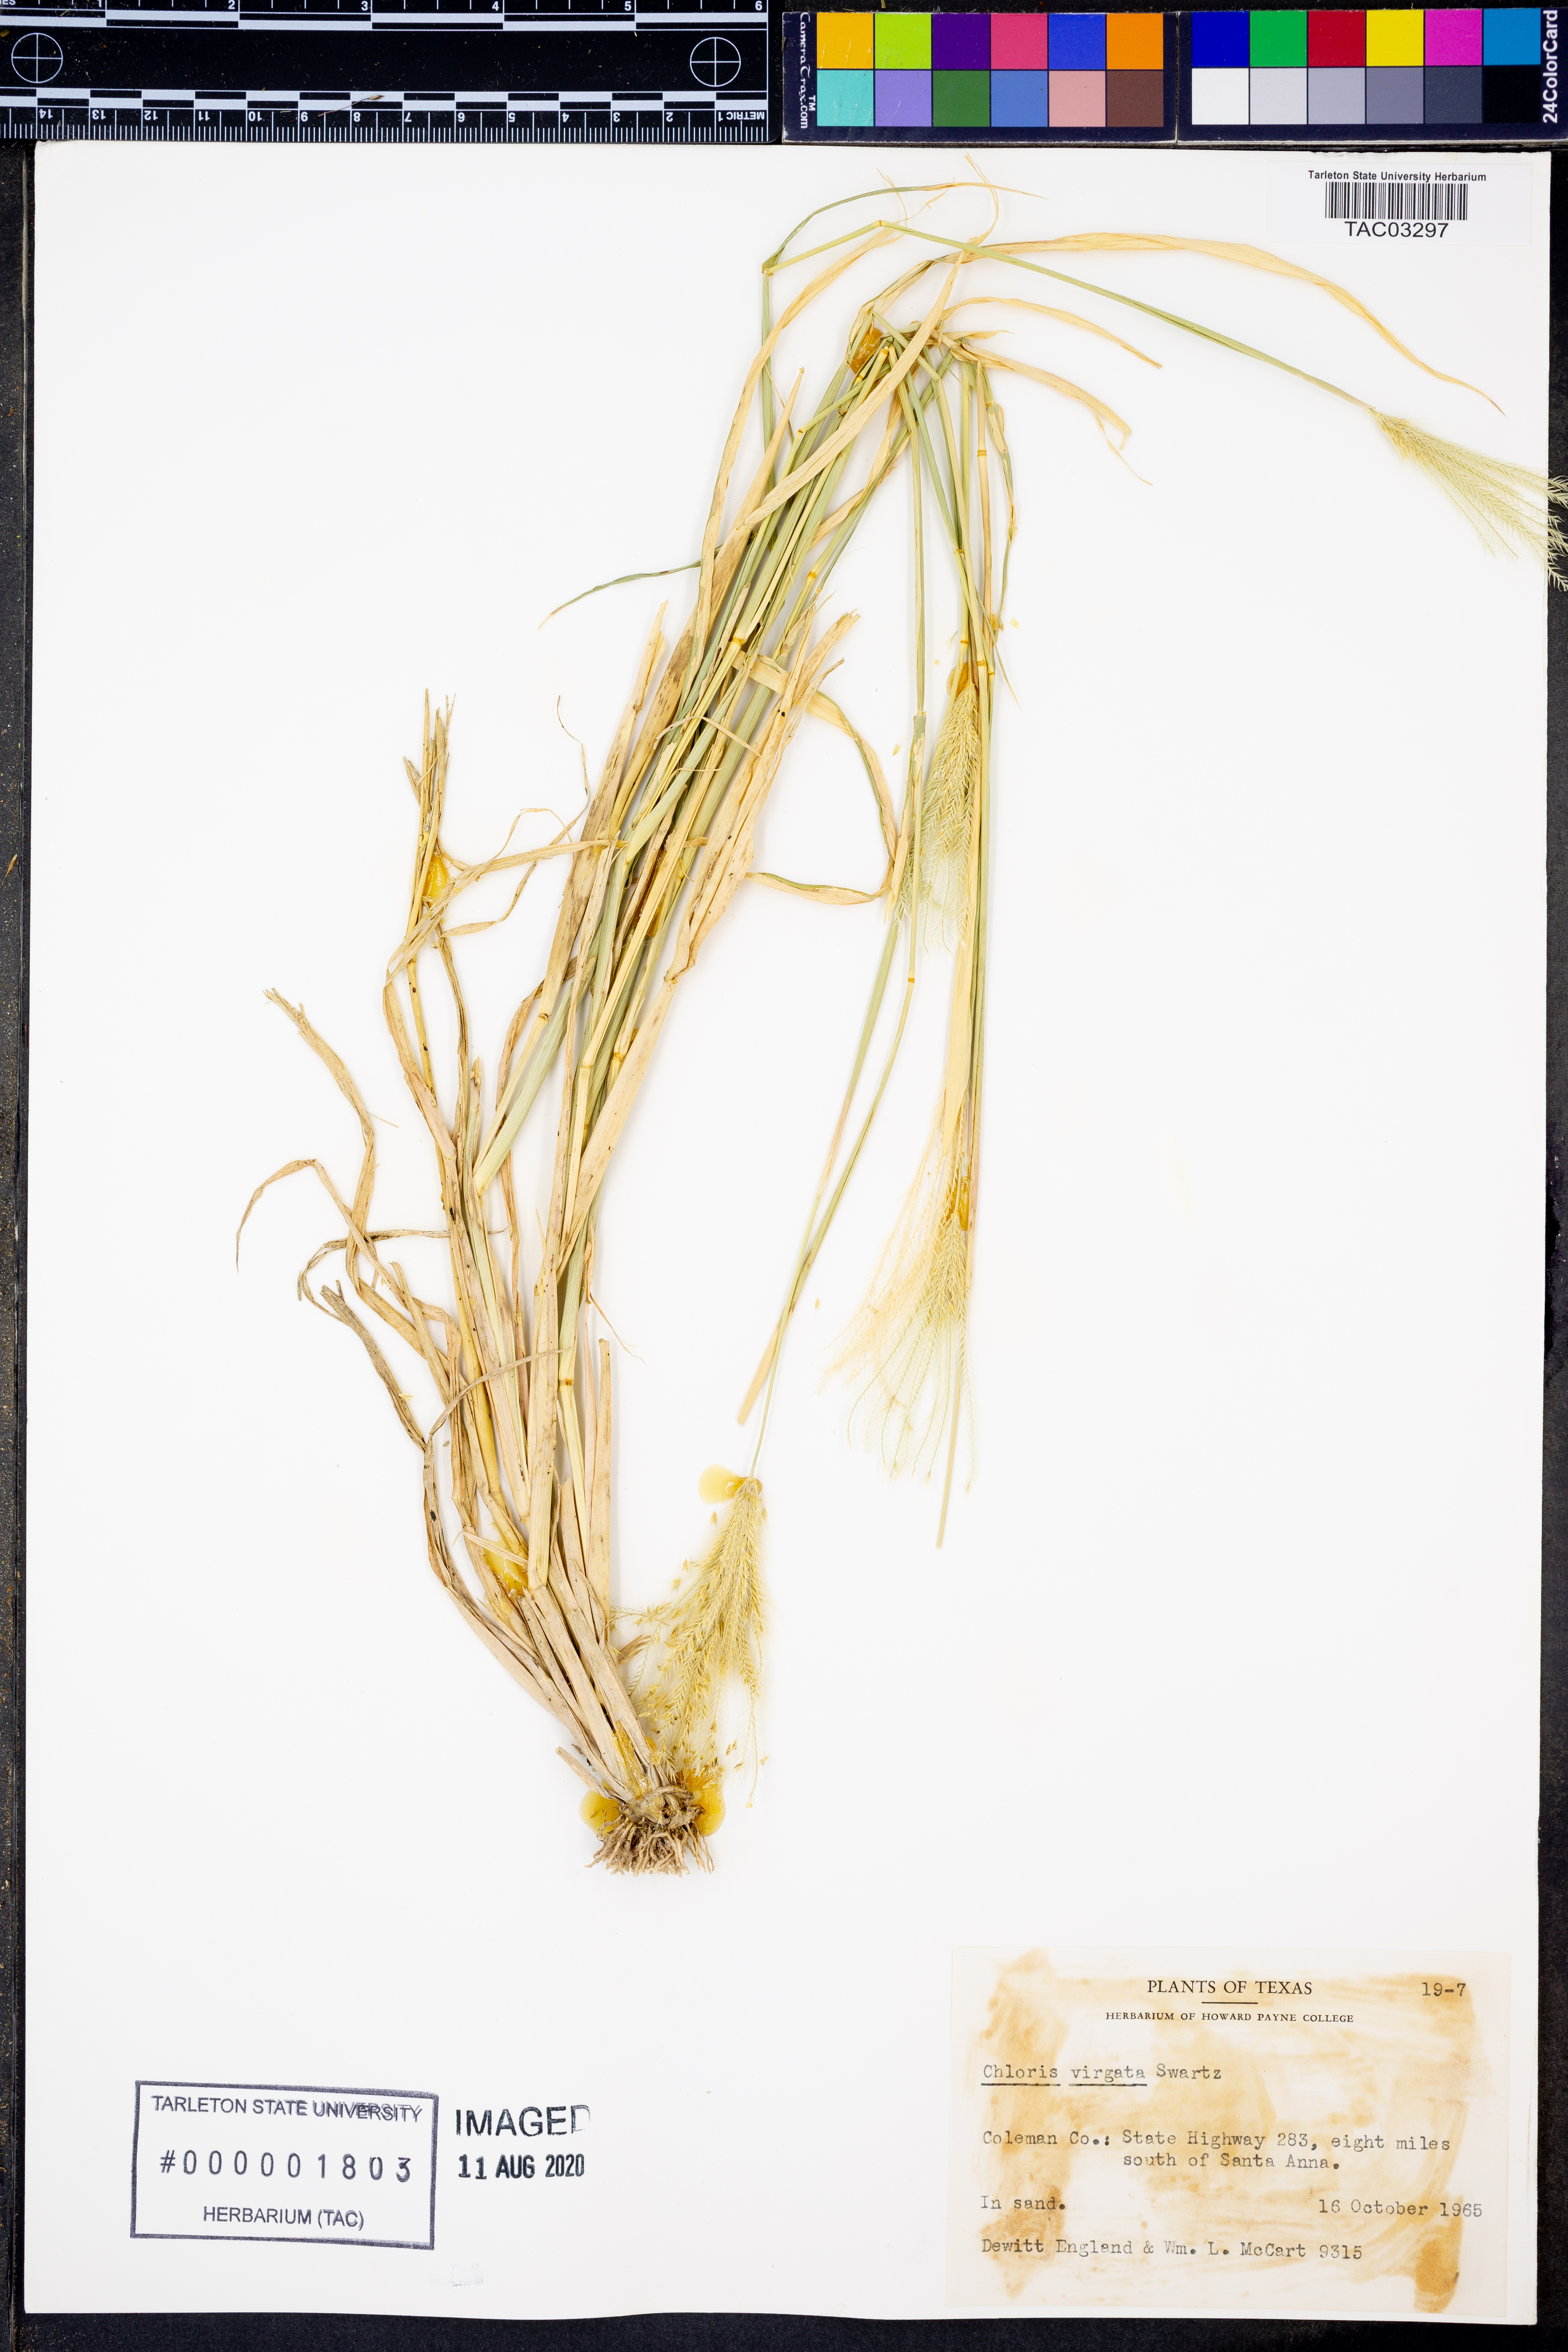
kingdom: Plantae
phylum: Tracheophyta
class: Liliopsida
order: Poales
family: Poaceae
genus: Chloris
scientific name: Chloris virgata
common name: Feathery rhodes-grass
